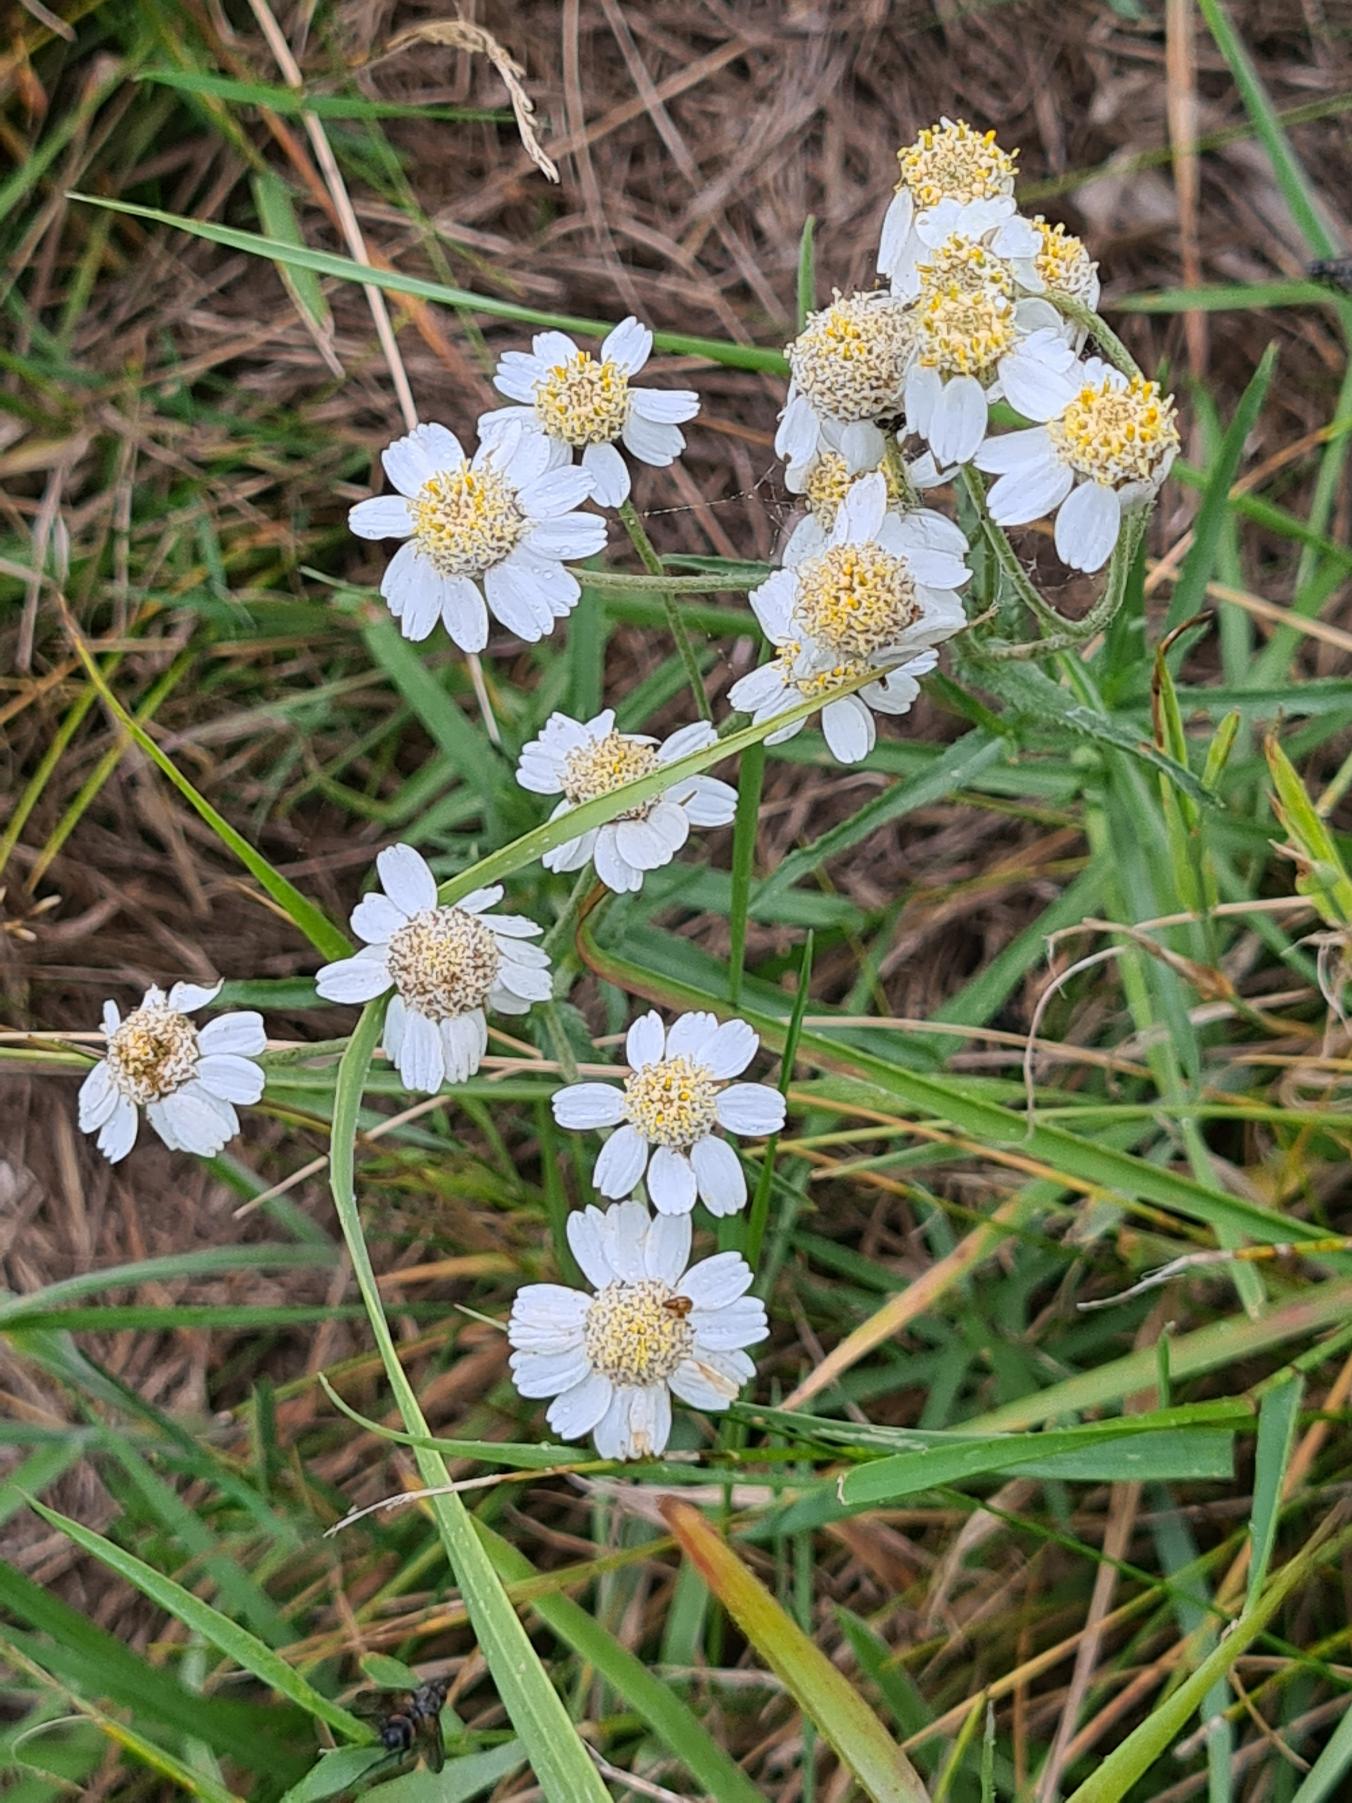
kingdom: Plantae
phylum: Tracheophyta
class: Magnoliopsida
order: Asterales
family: Asteraceae
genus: Achillea
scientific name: Achillea ptarmica
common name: Nyse-røllike
